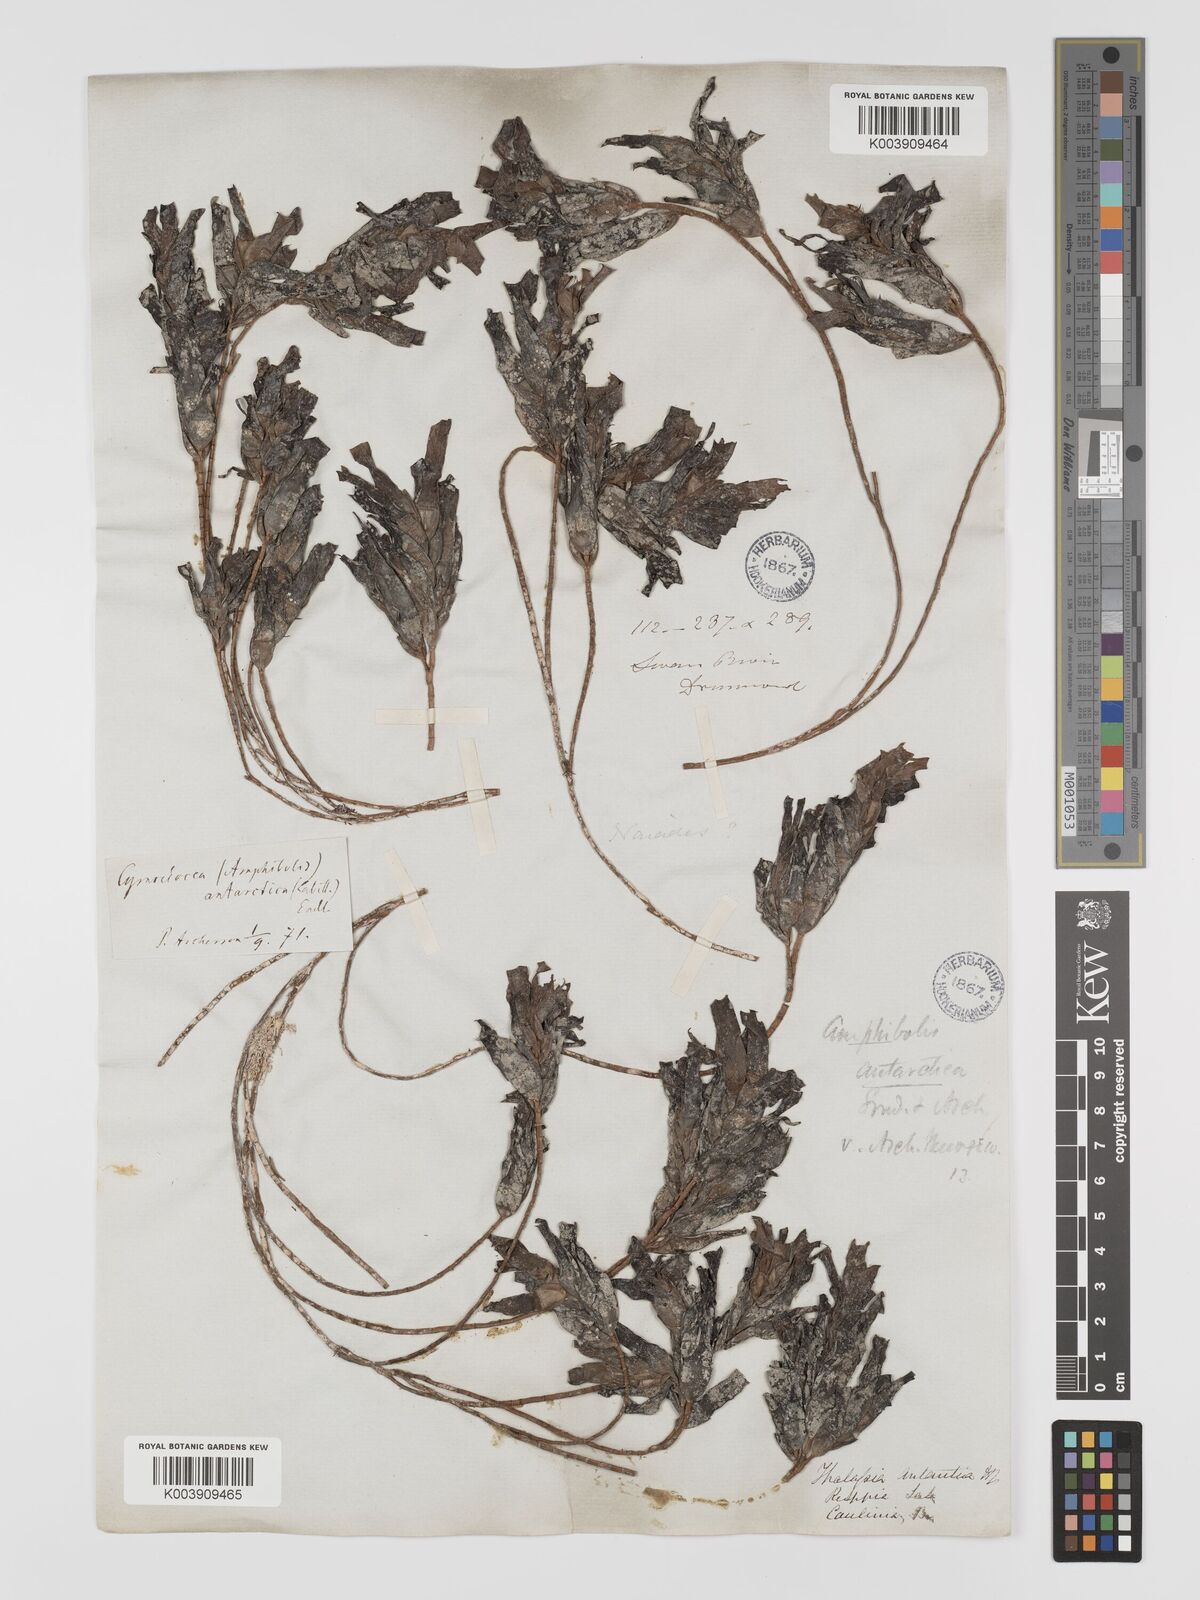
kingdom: Plantae
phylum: Tracheophyta
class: Liliopsida
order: Alismatales
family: Cymodoceaceae
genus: Amphibolis
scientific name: Amphibolis antarctica
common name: Species code: aa
